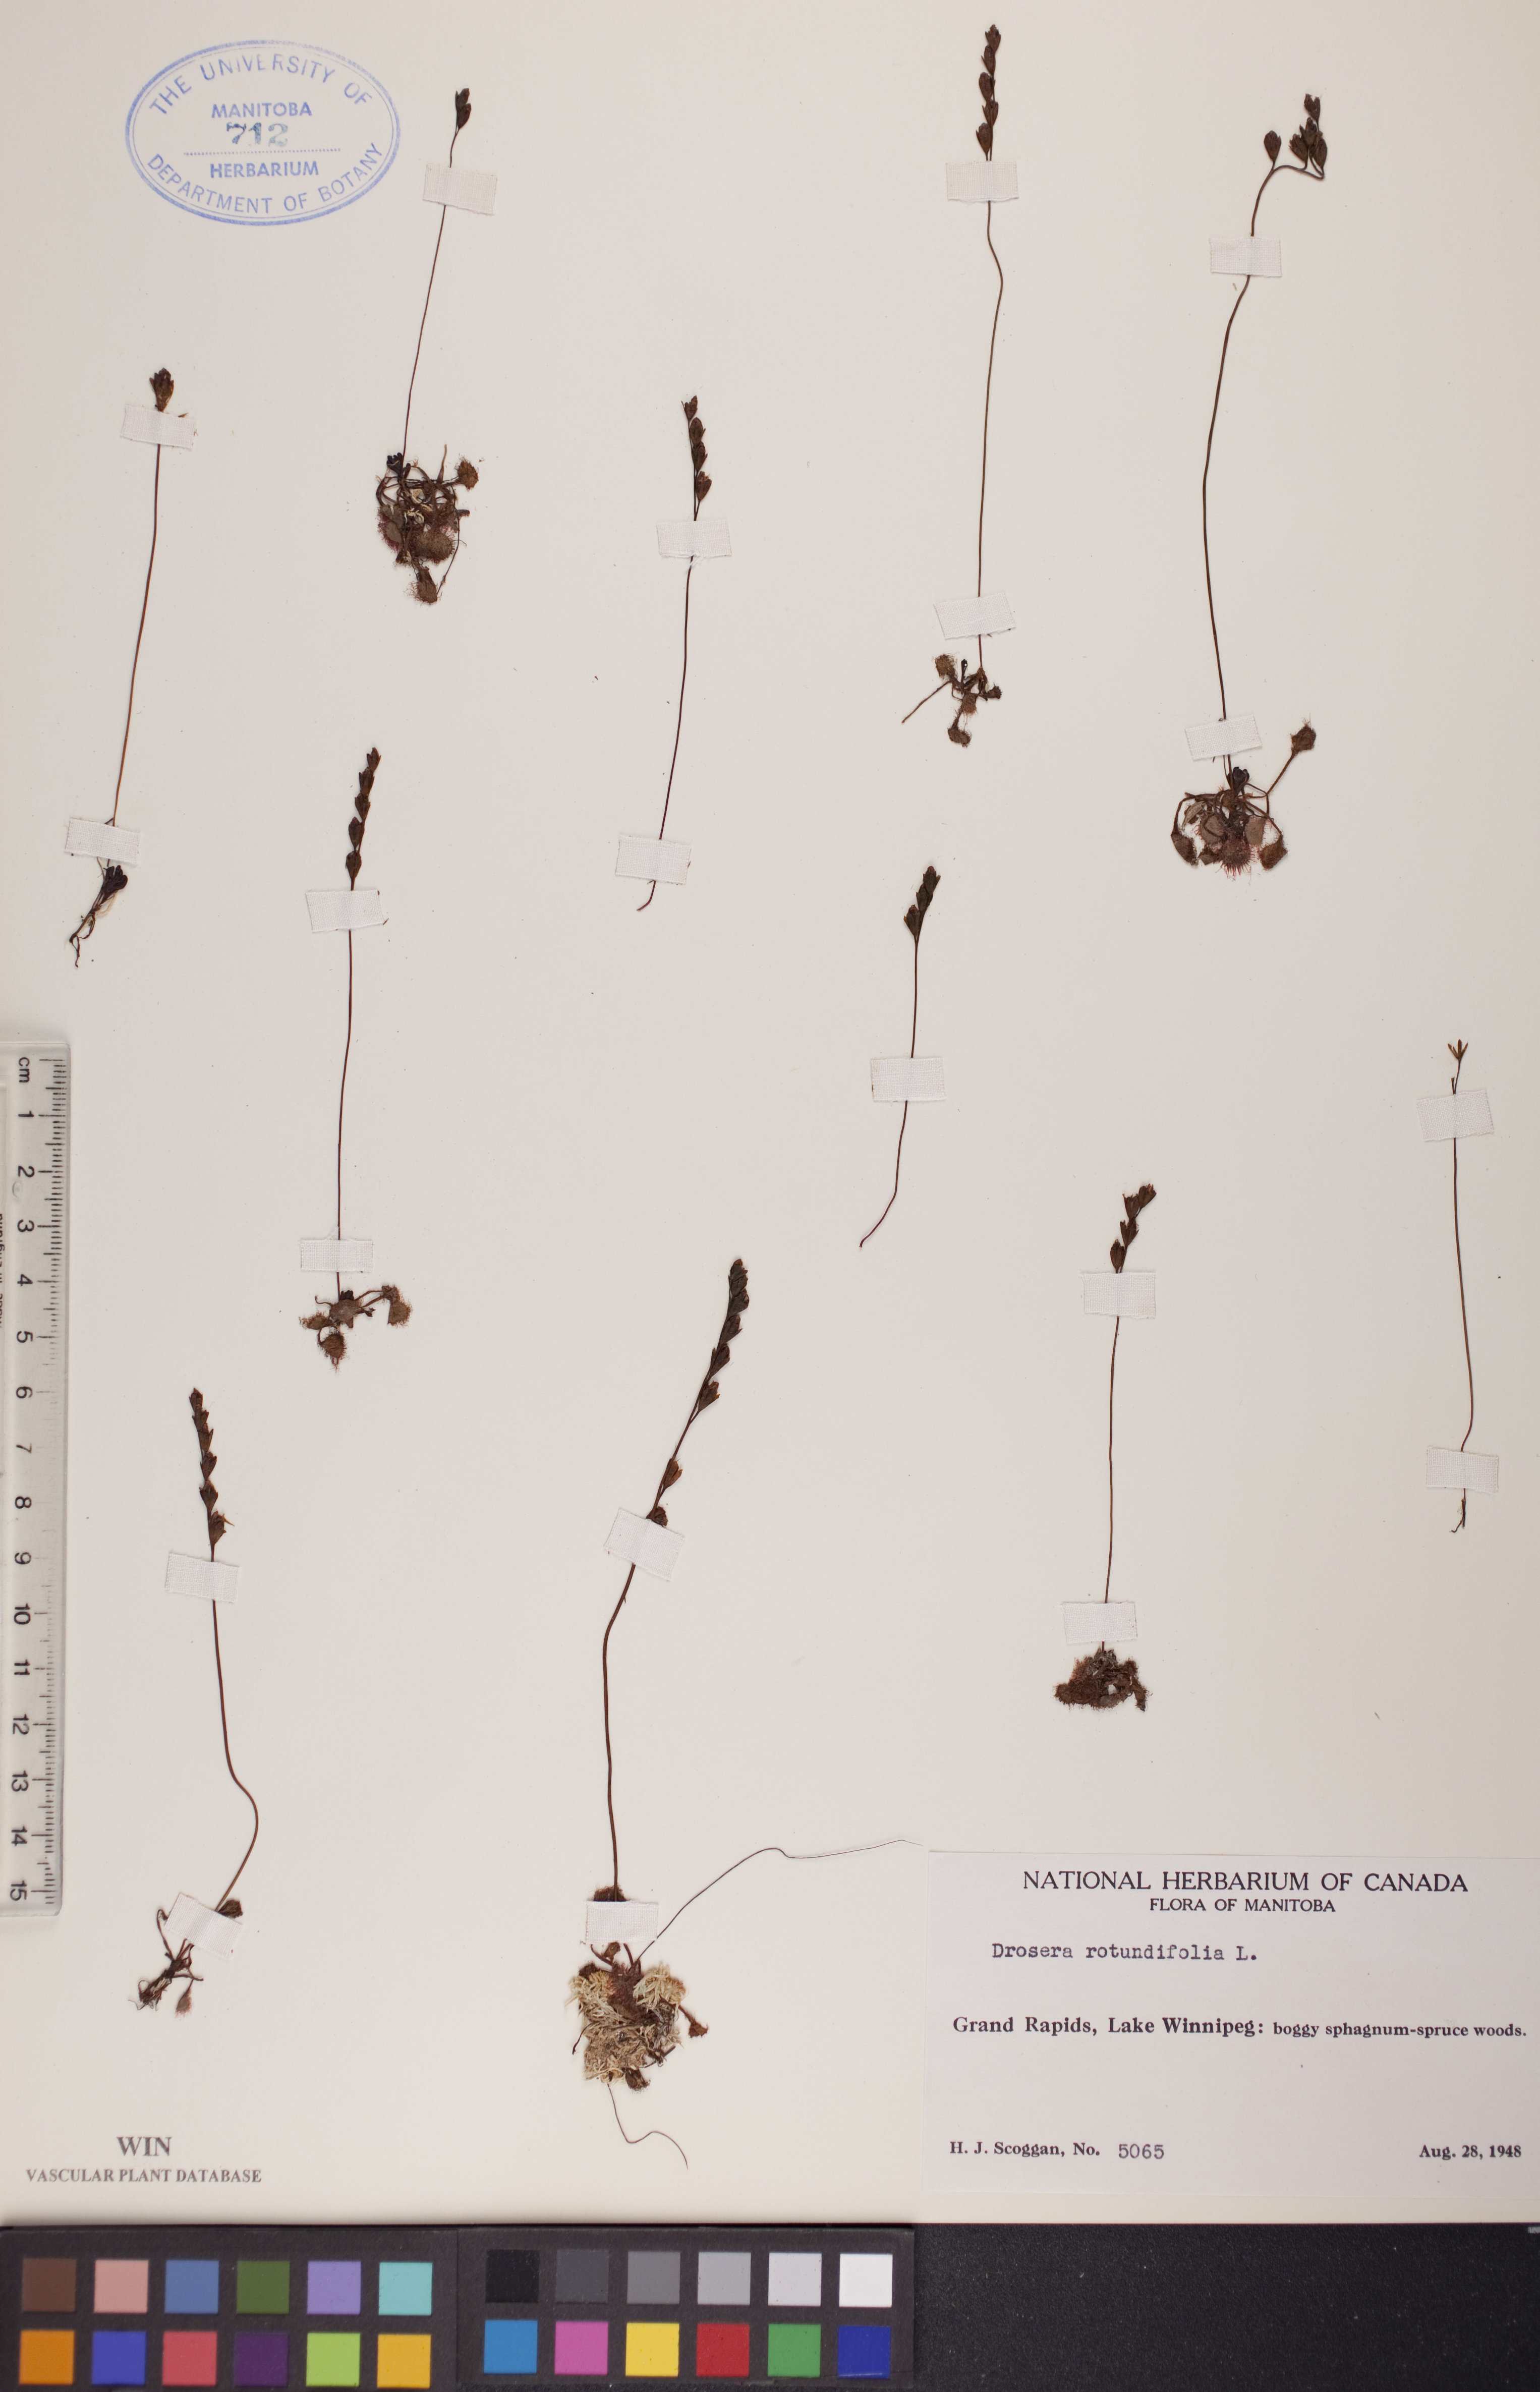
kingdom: Plantae
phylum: Tracheophyta
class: Magnoliopsida
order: Caryophyllales
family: Droseraceae
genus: Drosera
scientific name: Drosera rotundifolia
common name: Round-leaved sundew
